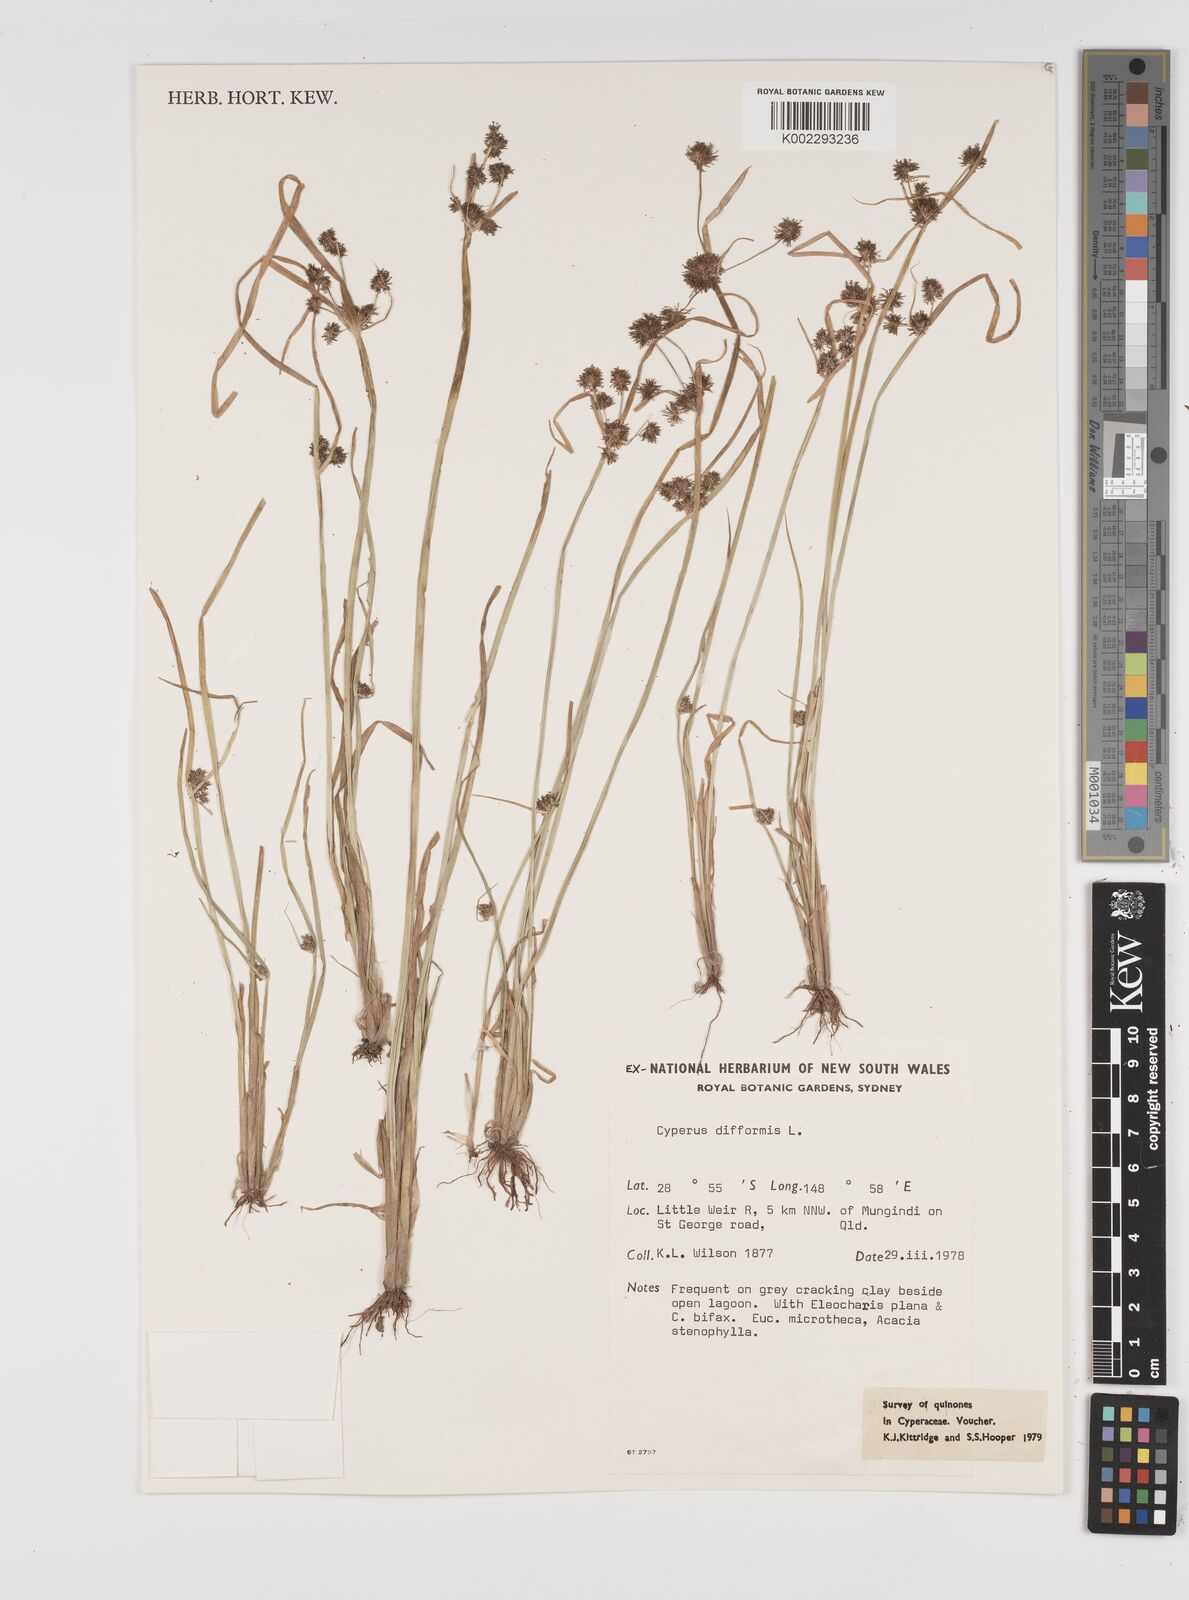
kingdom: Plantae
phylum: Tracheophyta
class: Liliopsida
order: Poales
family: Cyperaceae
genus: Cyperus
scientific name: Cyperus difformis
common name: Variable flatsedge
